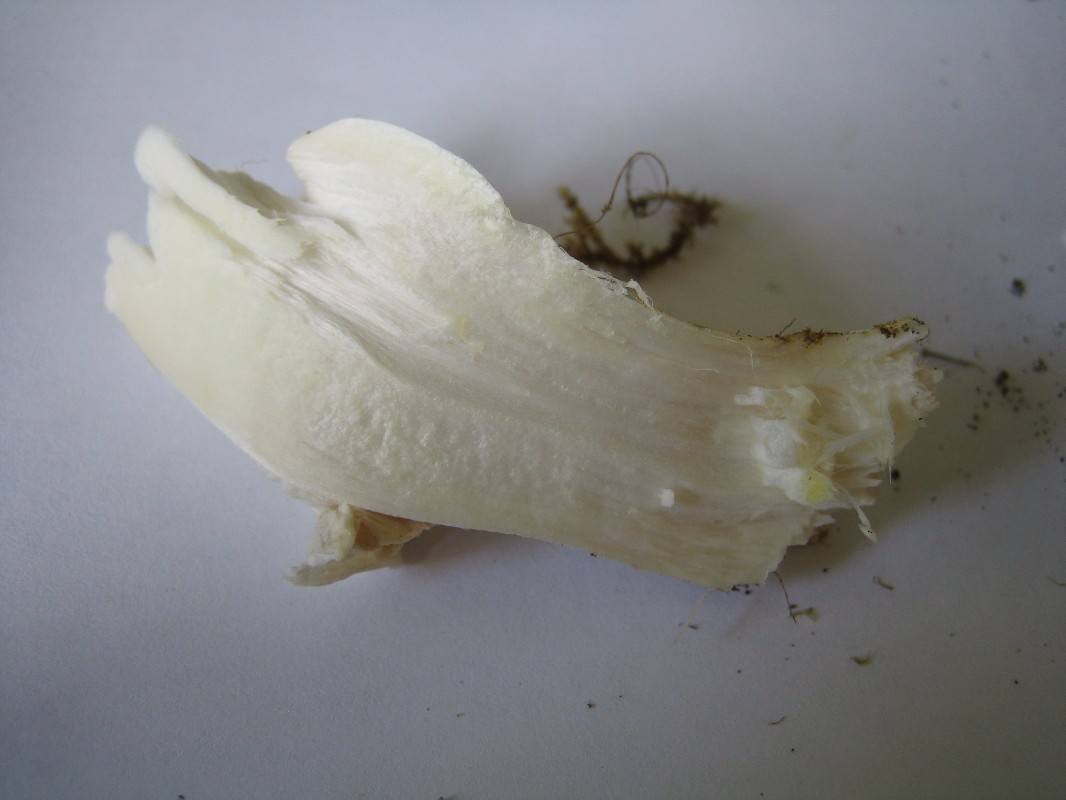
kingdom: Fungi
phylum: Basidiomycota
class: Agaricomycetes
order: Agaricales
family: Agaricaceae
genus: Agaricus
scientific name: Agaricus
